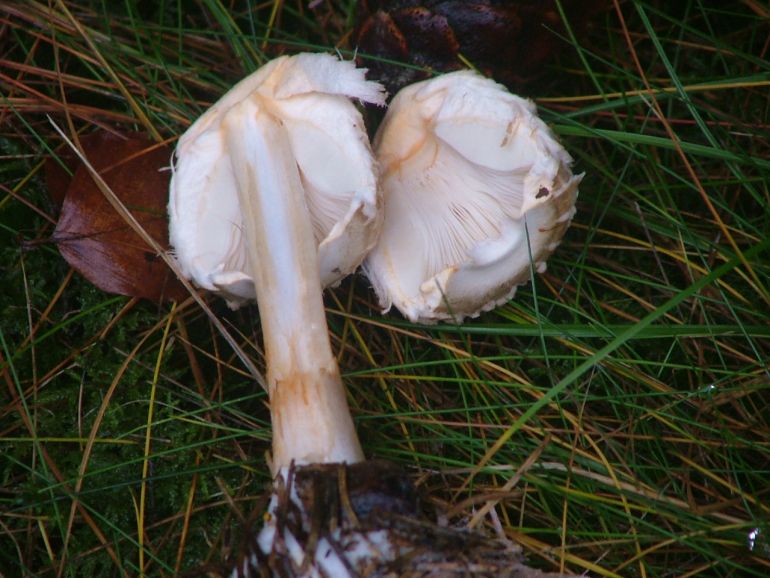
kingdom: Fungi
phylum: Basidiomycota
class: Agaricomycetes
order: Agaricales
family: Agaricaceae
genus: Chlorophyllum
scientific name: Chlorophyllum olivieri
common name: almindelig rabarberhat
